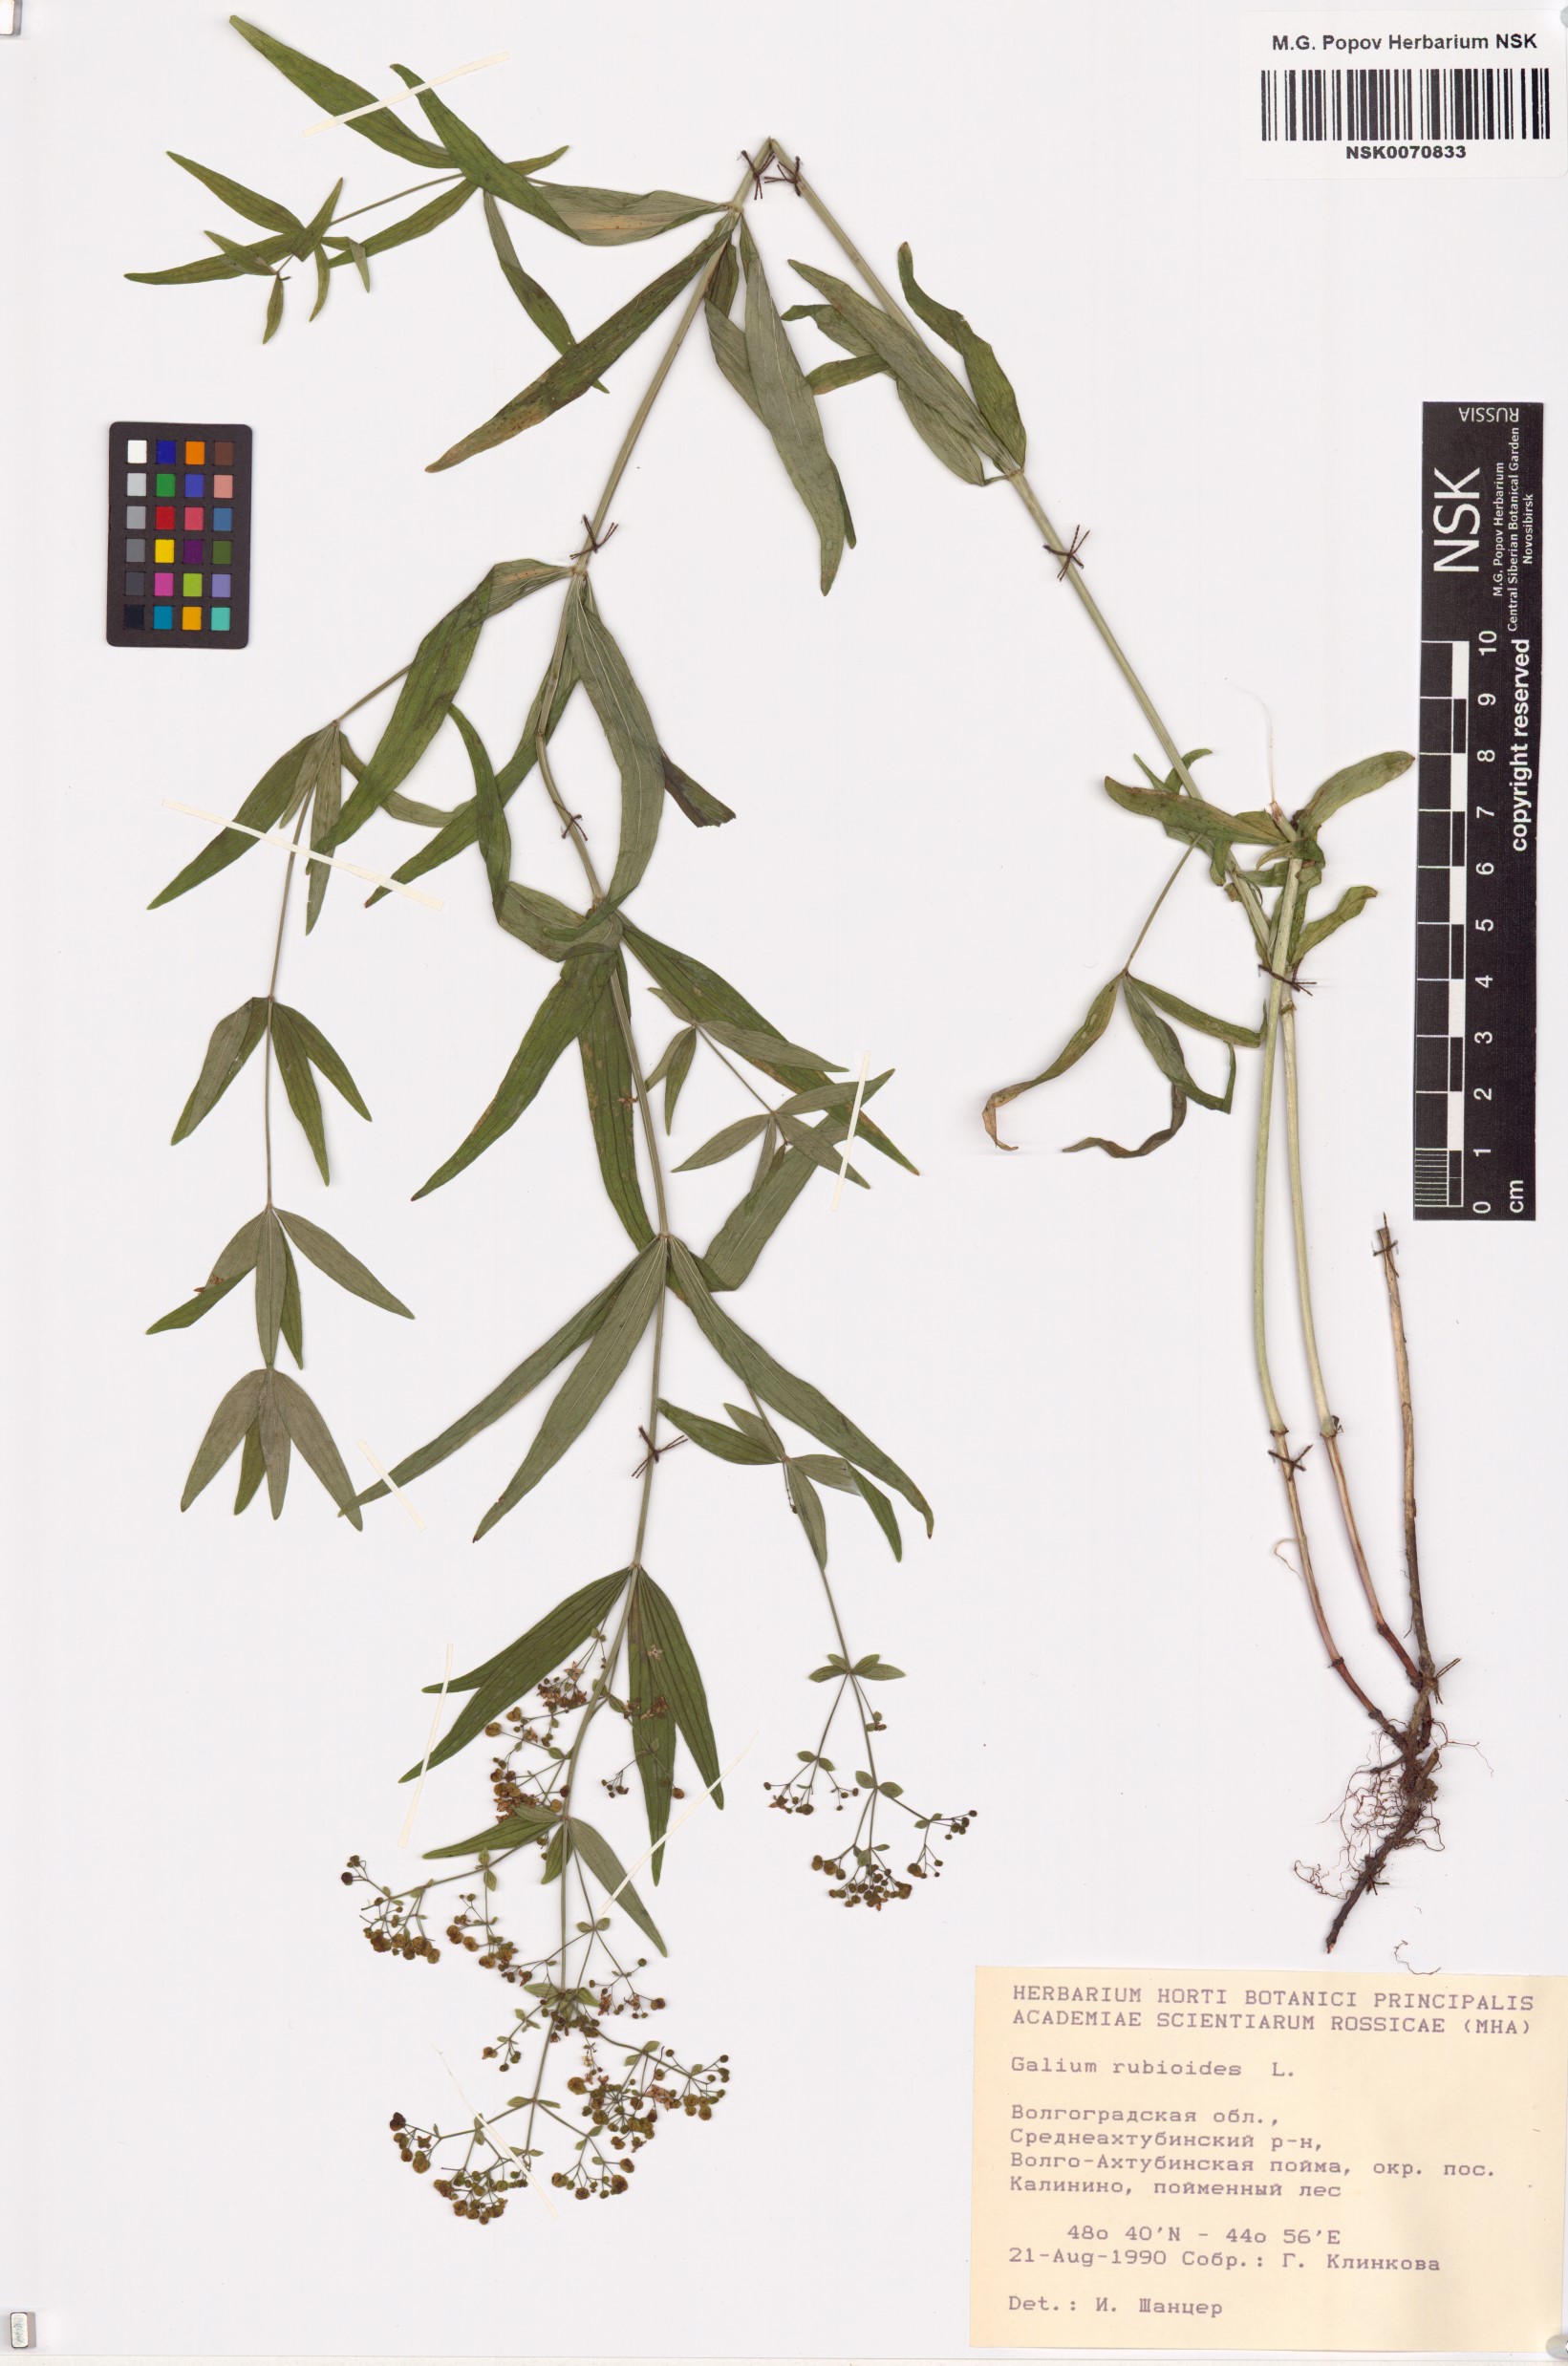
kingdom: Plantae
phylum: Tracheophyta
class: Magnoliopsida
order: Gentianales
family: Rubiaceae
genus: Galium
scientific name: Galium rubioides
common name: European bedstraw
